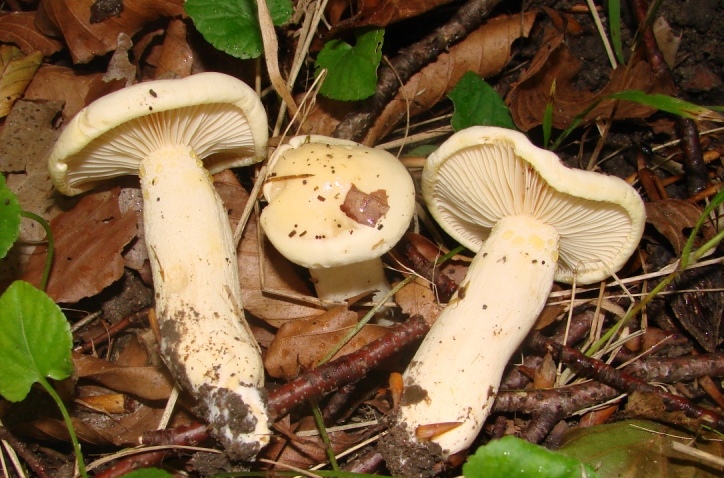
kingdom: Fungi
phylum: Basidiomycota
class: Agaricomycetes
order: Agaricales
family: Hygrophoraceae
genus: Hygrophorus
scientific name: Hygrophorus chrysodon
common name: gulfnugget sneglehat
